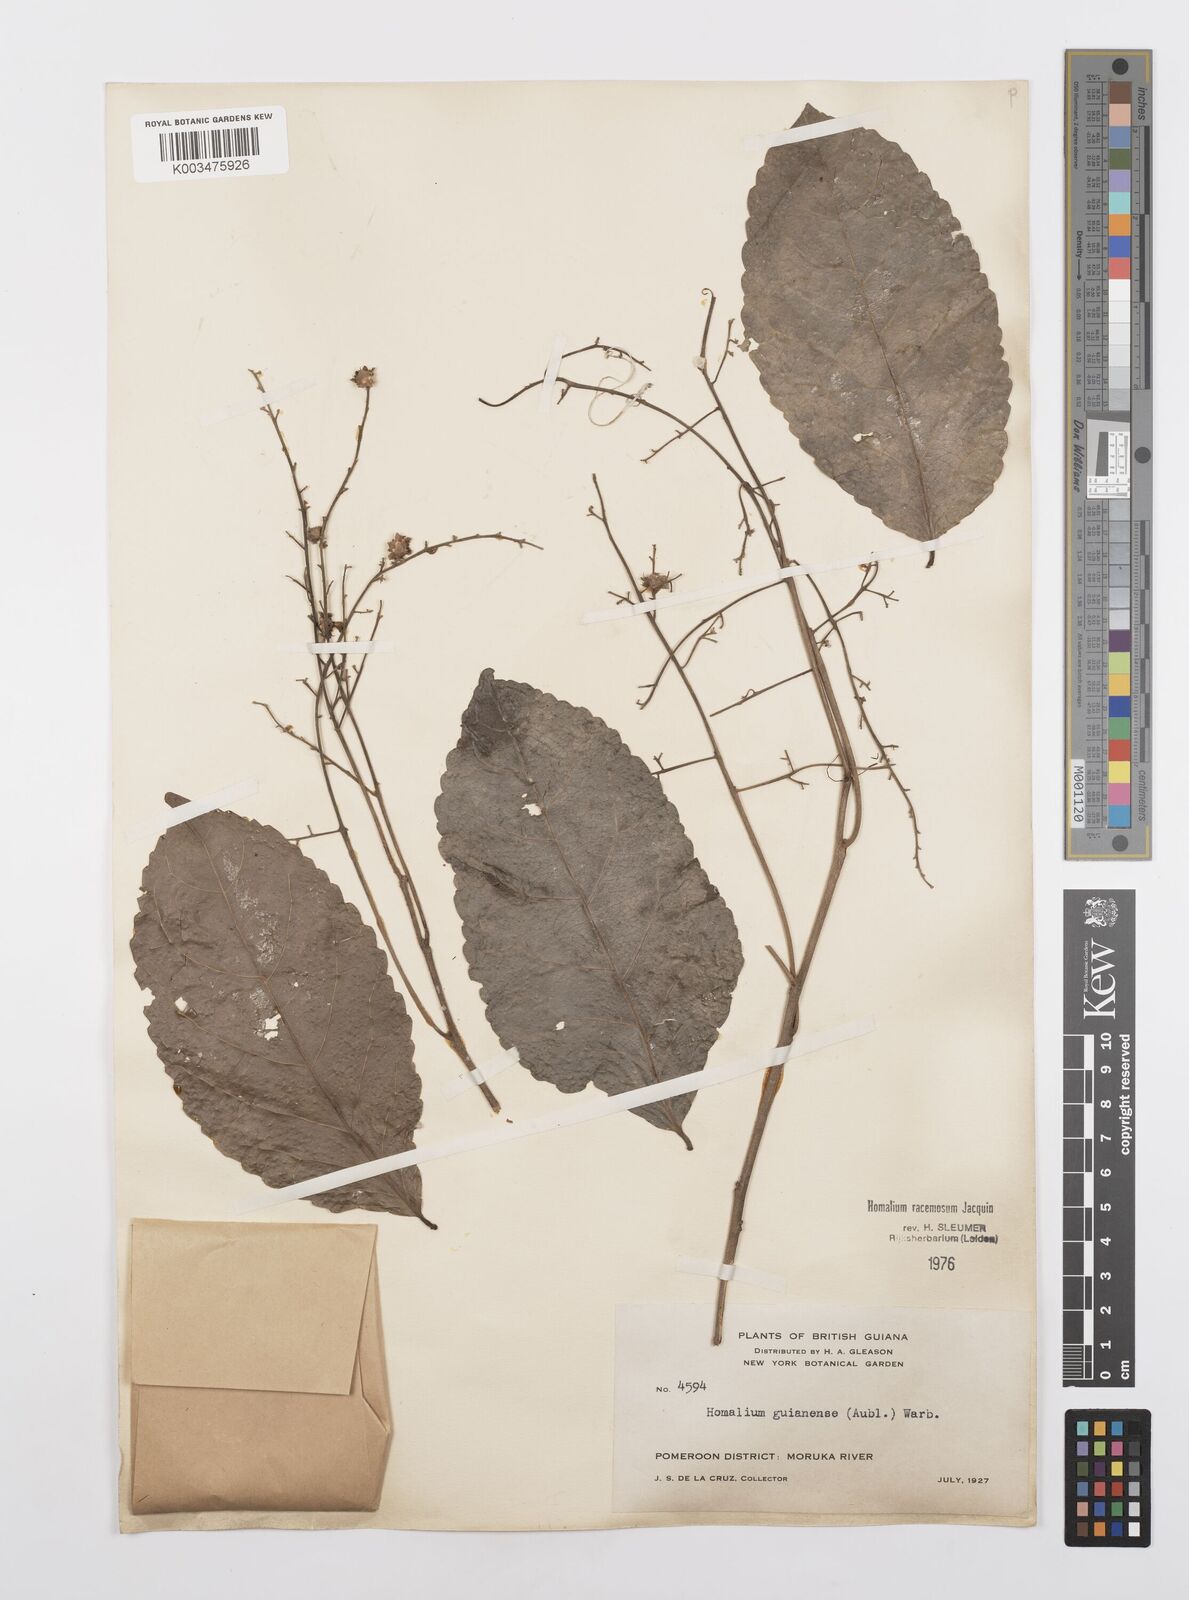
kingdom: Plantae
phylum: Tracheophyta
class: Magnoliopsida
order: Malpighiales
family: Salicaceae
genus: Homalium
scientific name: Homalium racemosum
